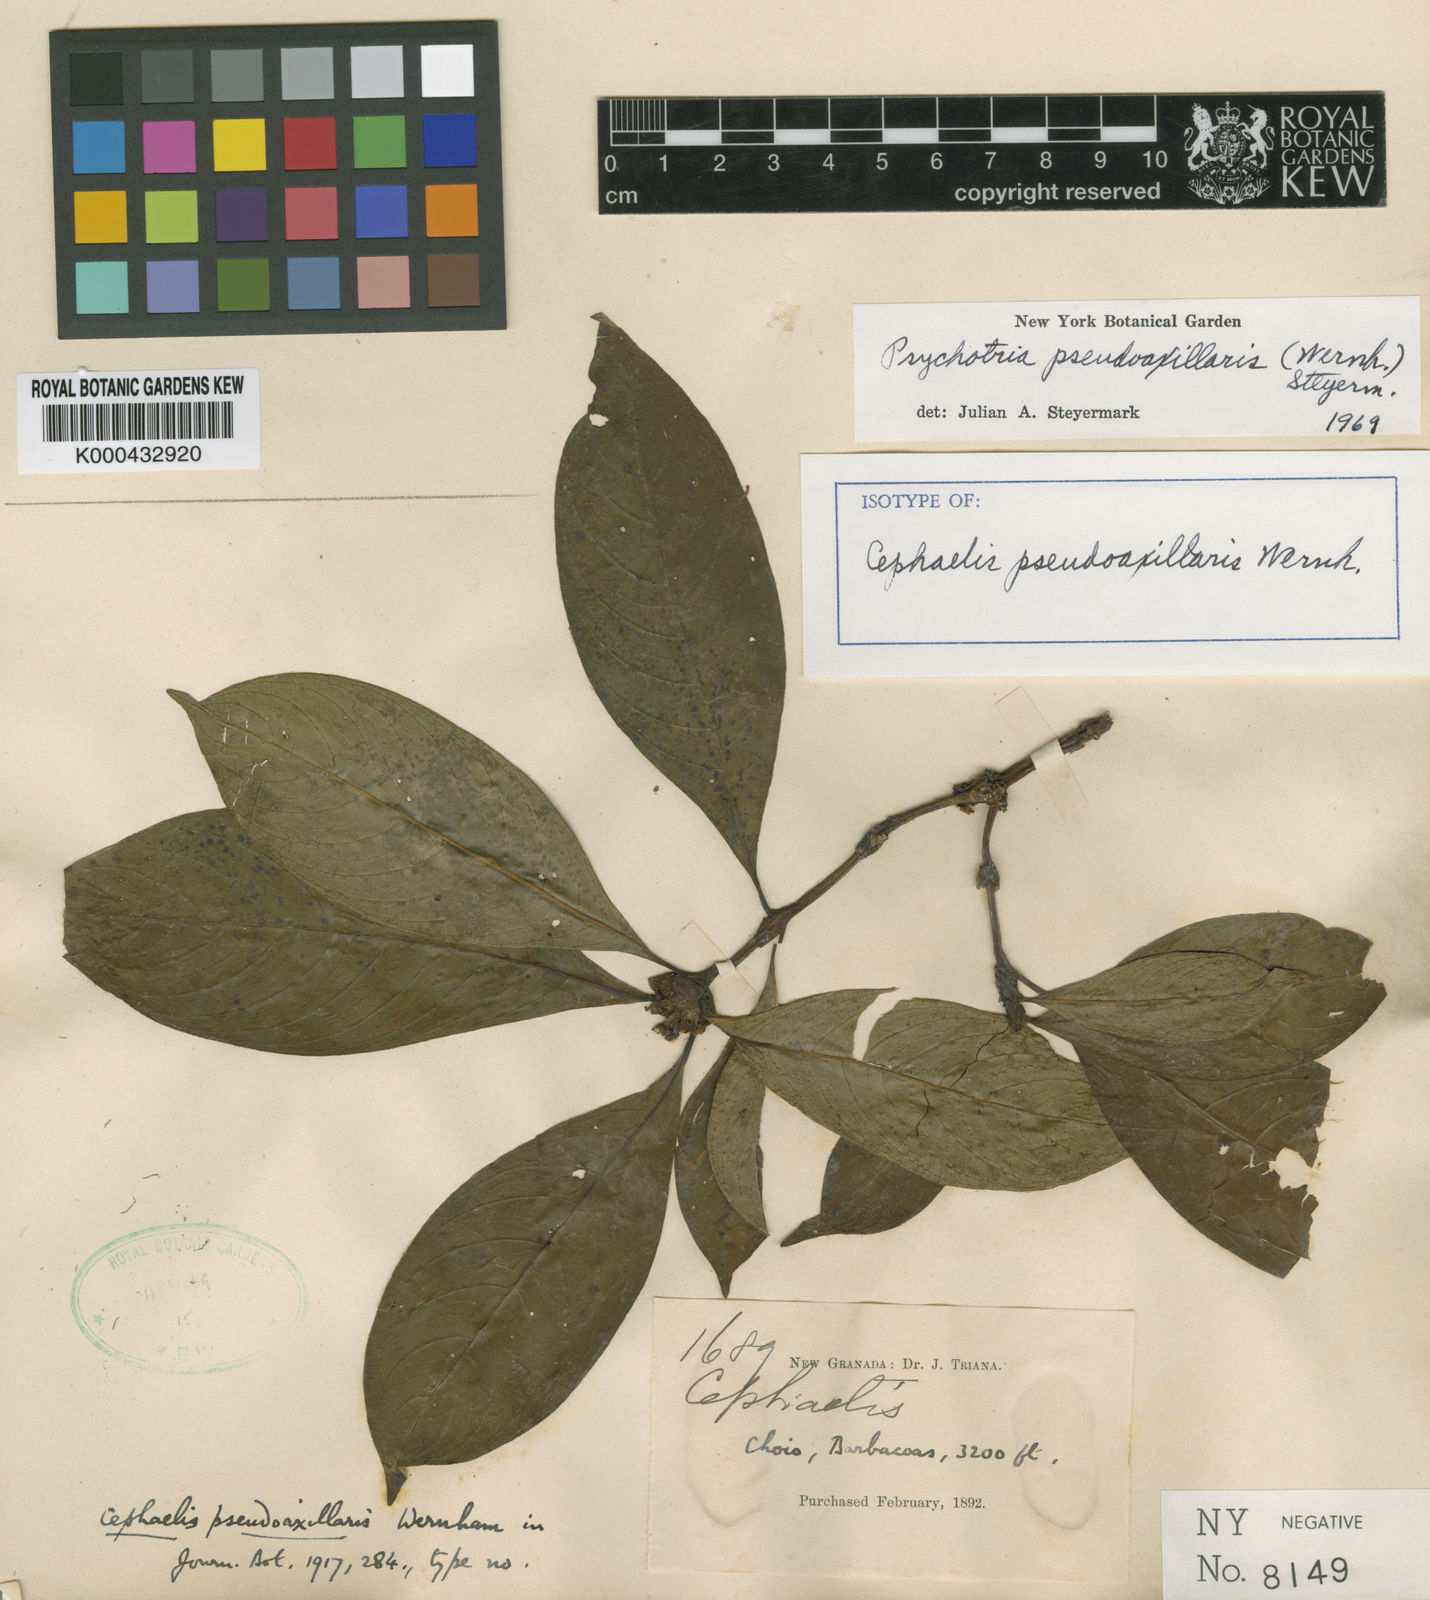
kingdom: Plantae
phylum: Tracheophyta
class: Magnoliopsida
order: Gentianales
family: Rubiaceae
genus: Psychotria
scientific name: Psychotria
